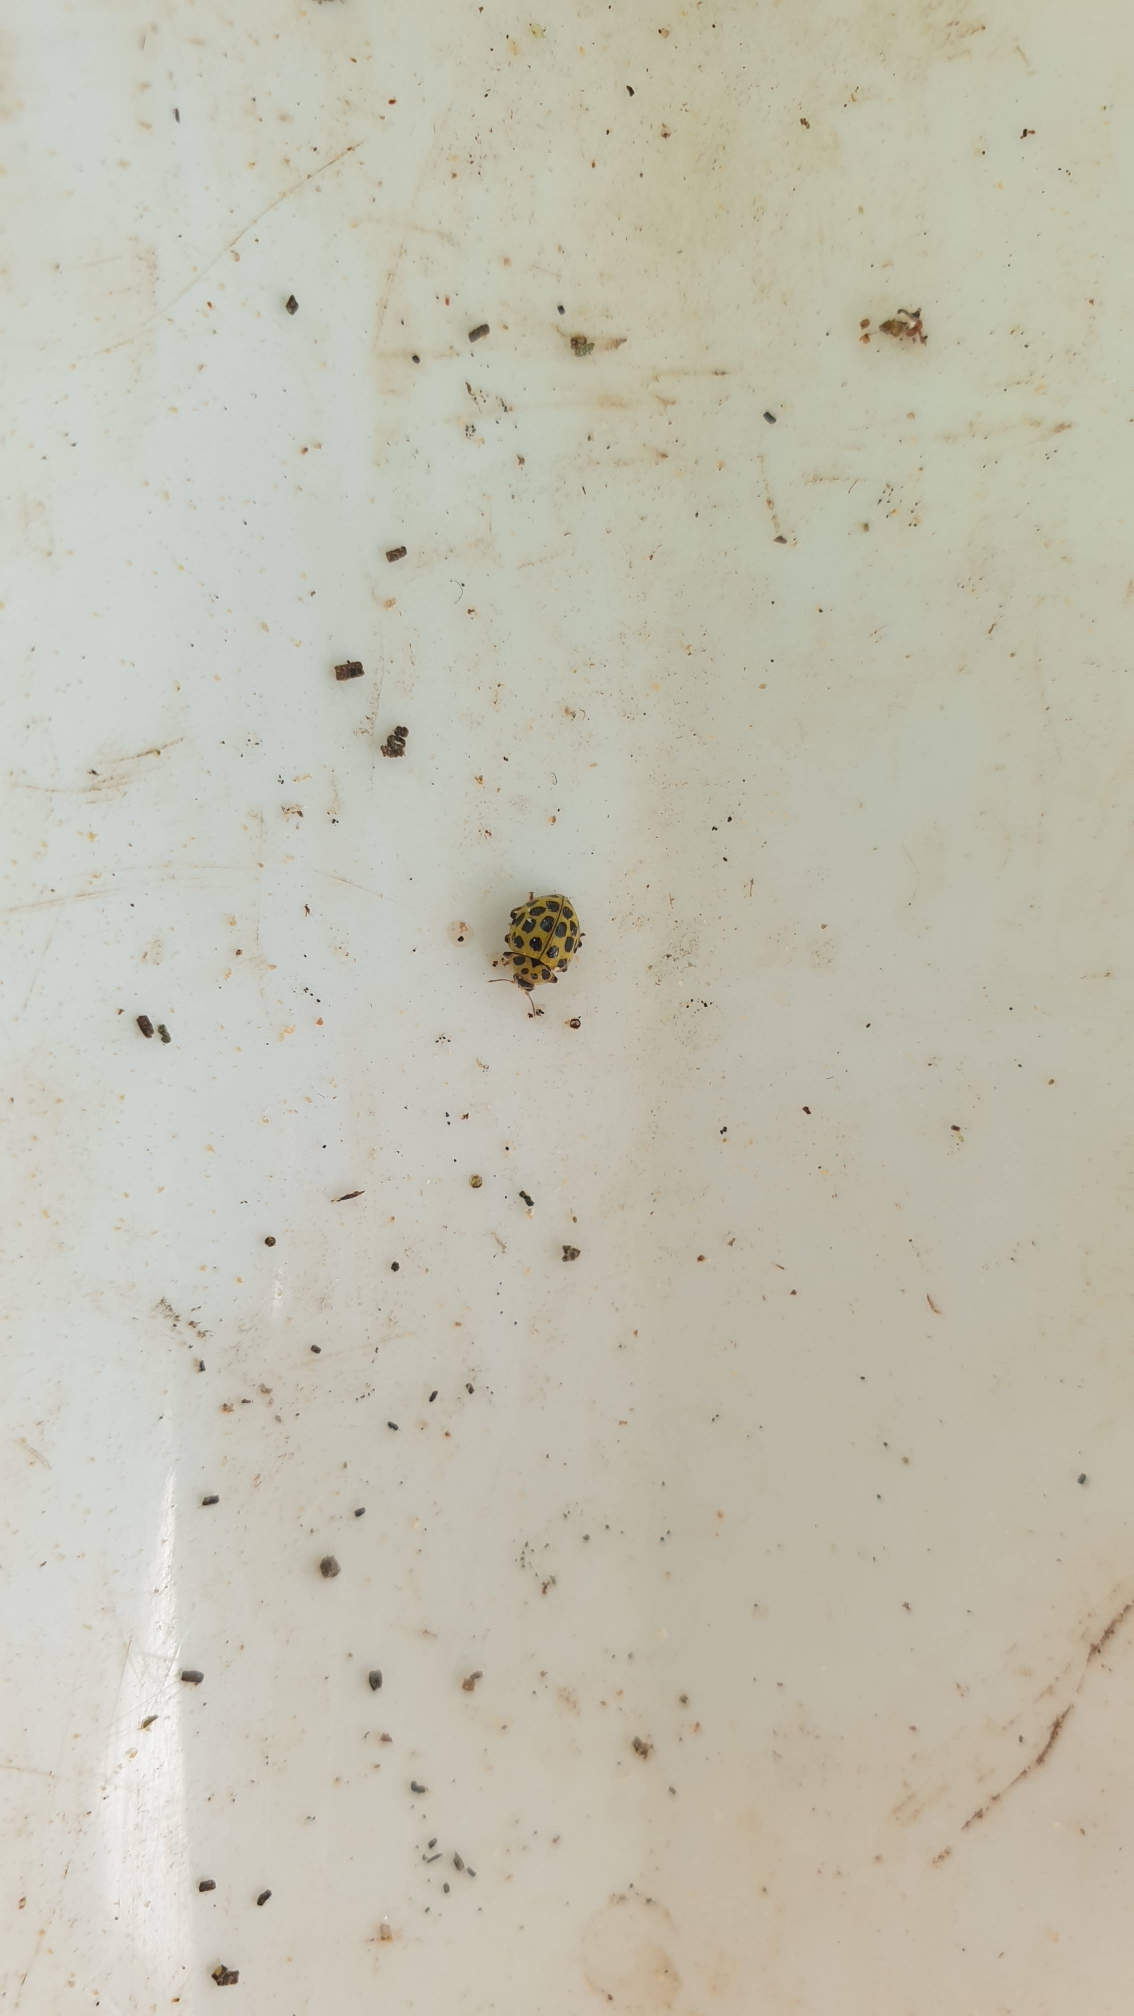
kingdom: Animalia
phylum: Arthropoda
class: Insecta
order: Coleoptera
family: Coccinellidae
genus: Psyllobora
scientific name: Psyllobora vigintiduopunctata
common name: Toogtyveplettet mariehøne
